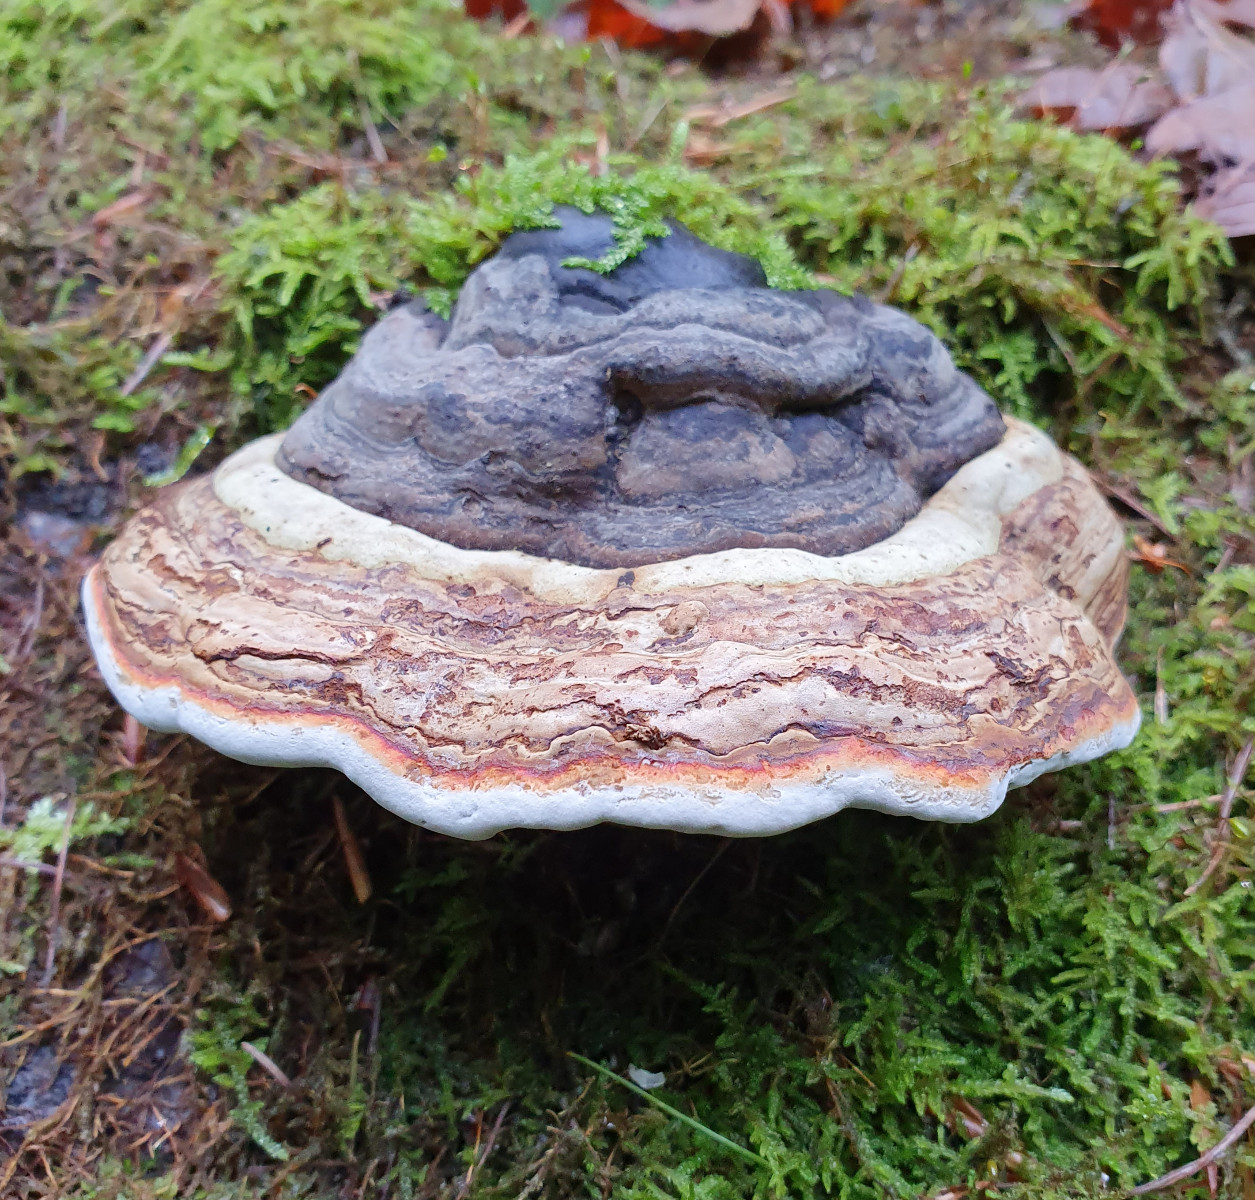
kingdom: Fungi
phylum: Basidiomycota
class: Agaricomycetes
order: Polyporales
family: Polyporaceae
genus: Fomes
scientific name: Fomes fomentarius
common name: tøndersvamp
